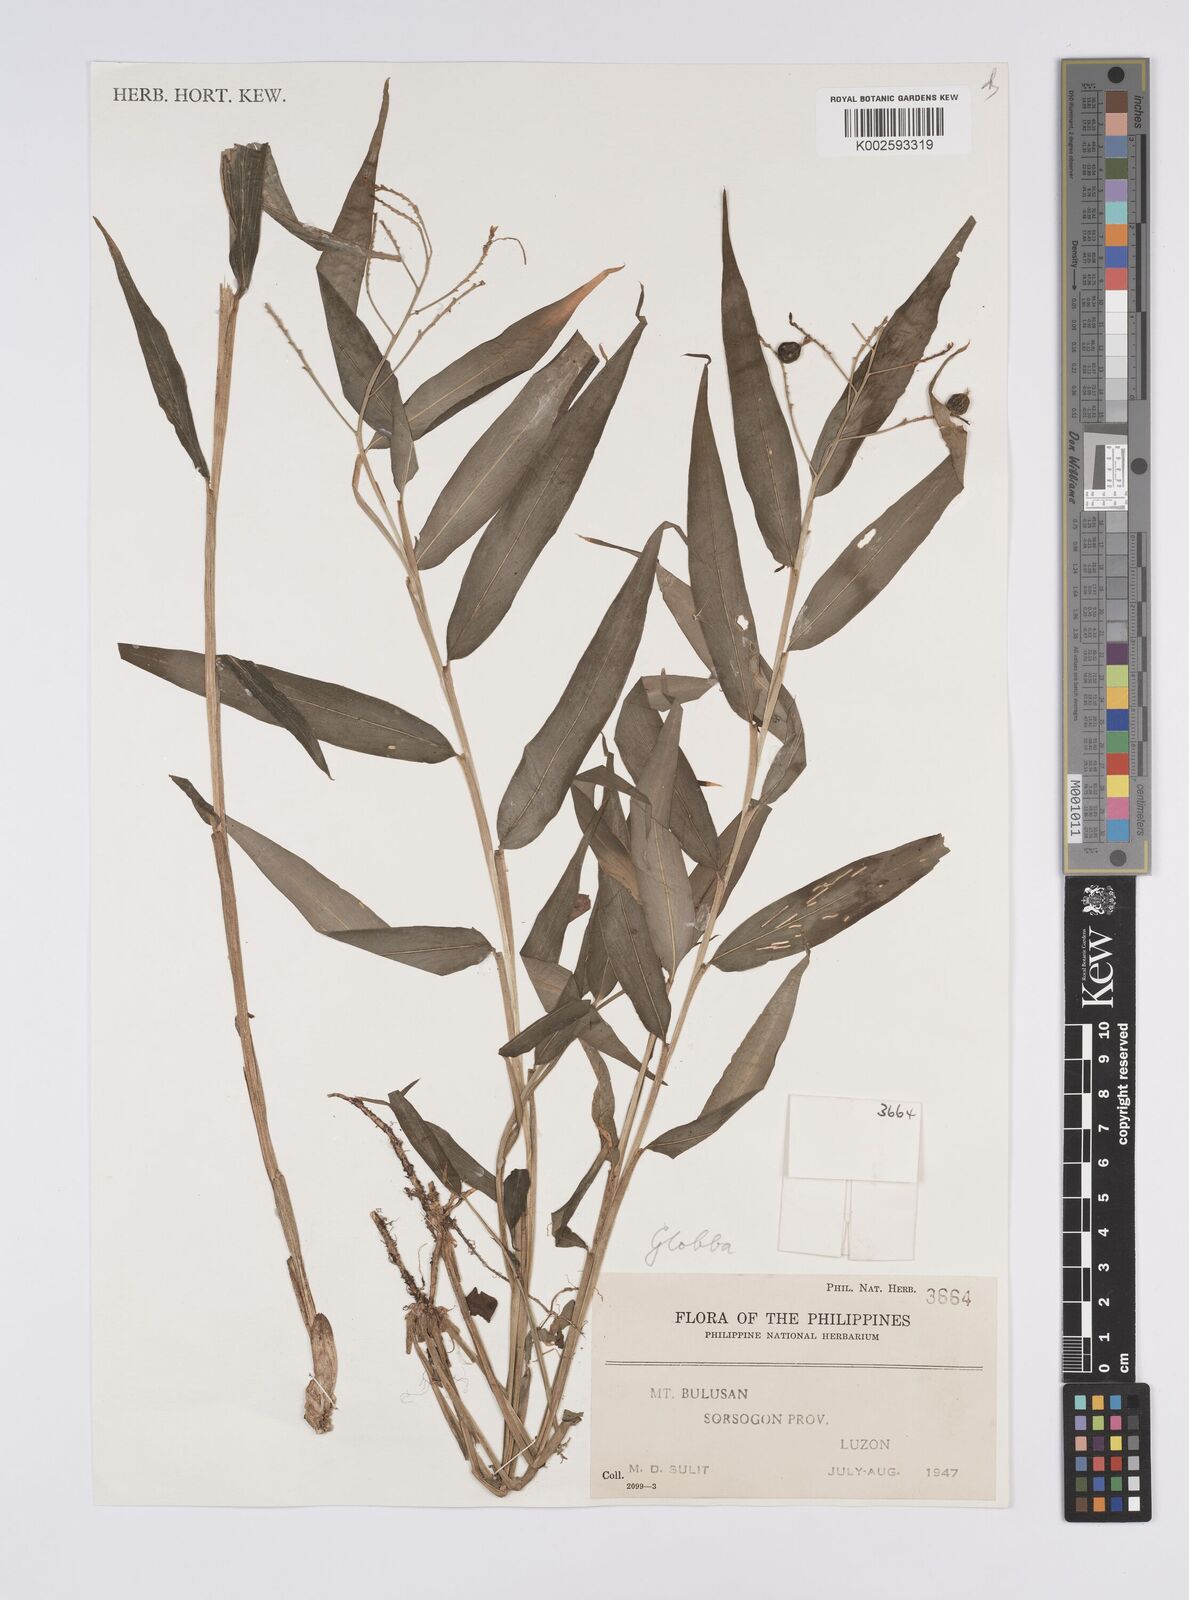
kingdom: Plantae
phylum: Tracheophyta
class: Liliopsida
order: Zingiberales
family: Zingiberaceae
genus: Globba
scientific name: Globba
